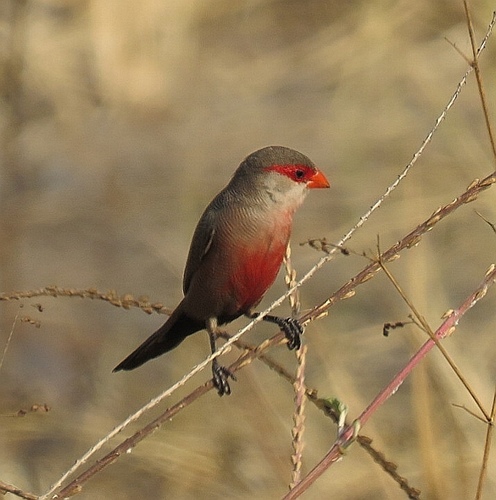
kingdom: Animalia
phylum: Chordata
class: Aves
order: Passeriformes
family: Estrildidae
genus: Estrilda
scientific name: Estrilda astrild
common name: Common waxbill
